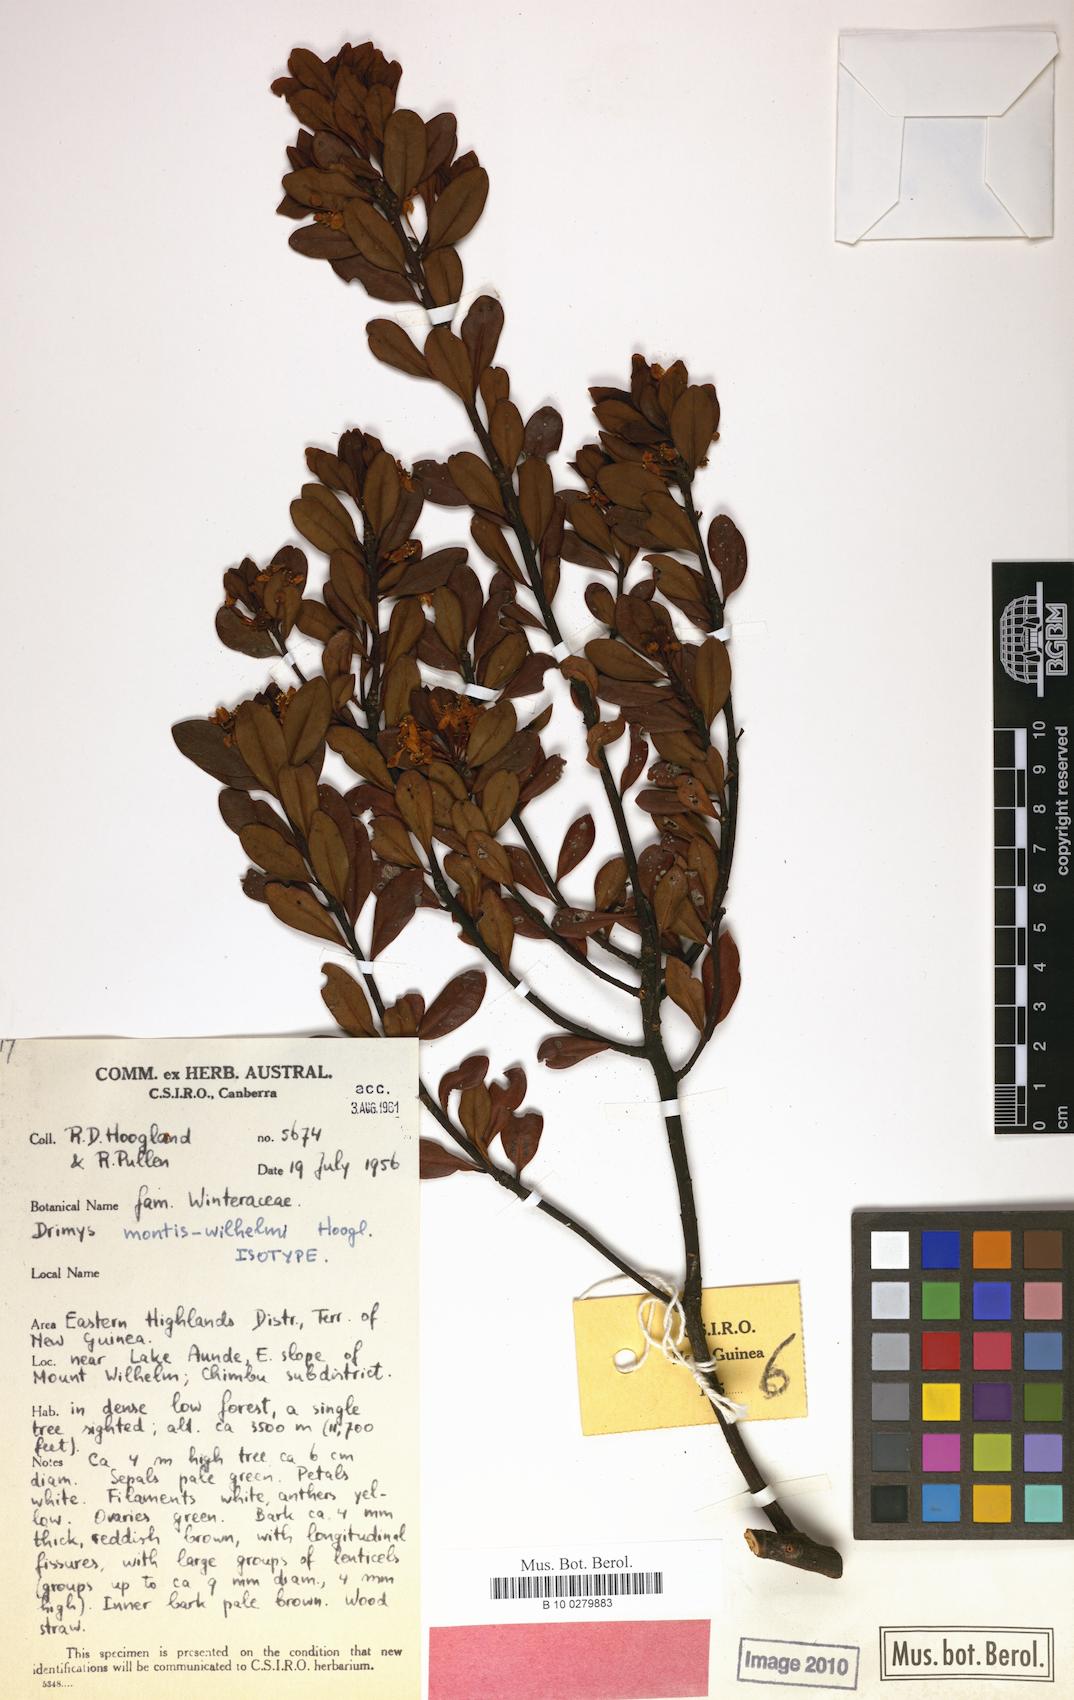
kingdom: Plantae
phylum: Tracheophyta
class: Magnoliopsida
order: Canellales
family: Winteraceae
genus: Drimys
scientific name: Drimys piperita
